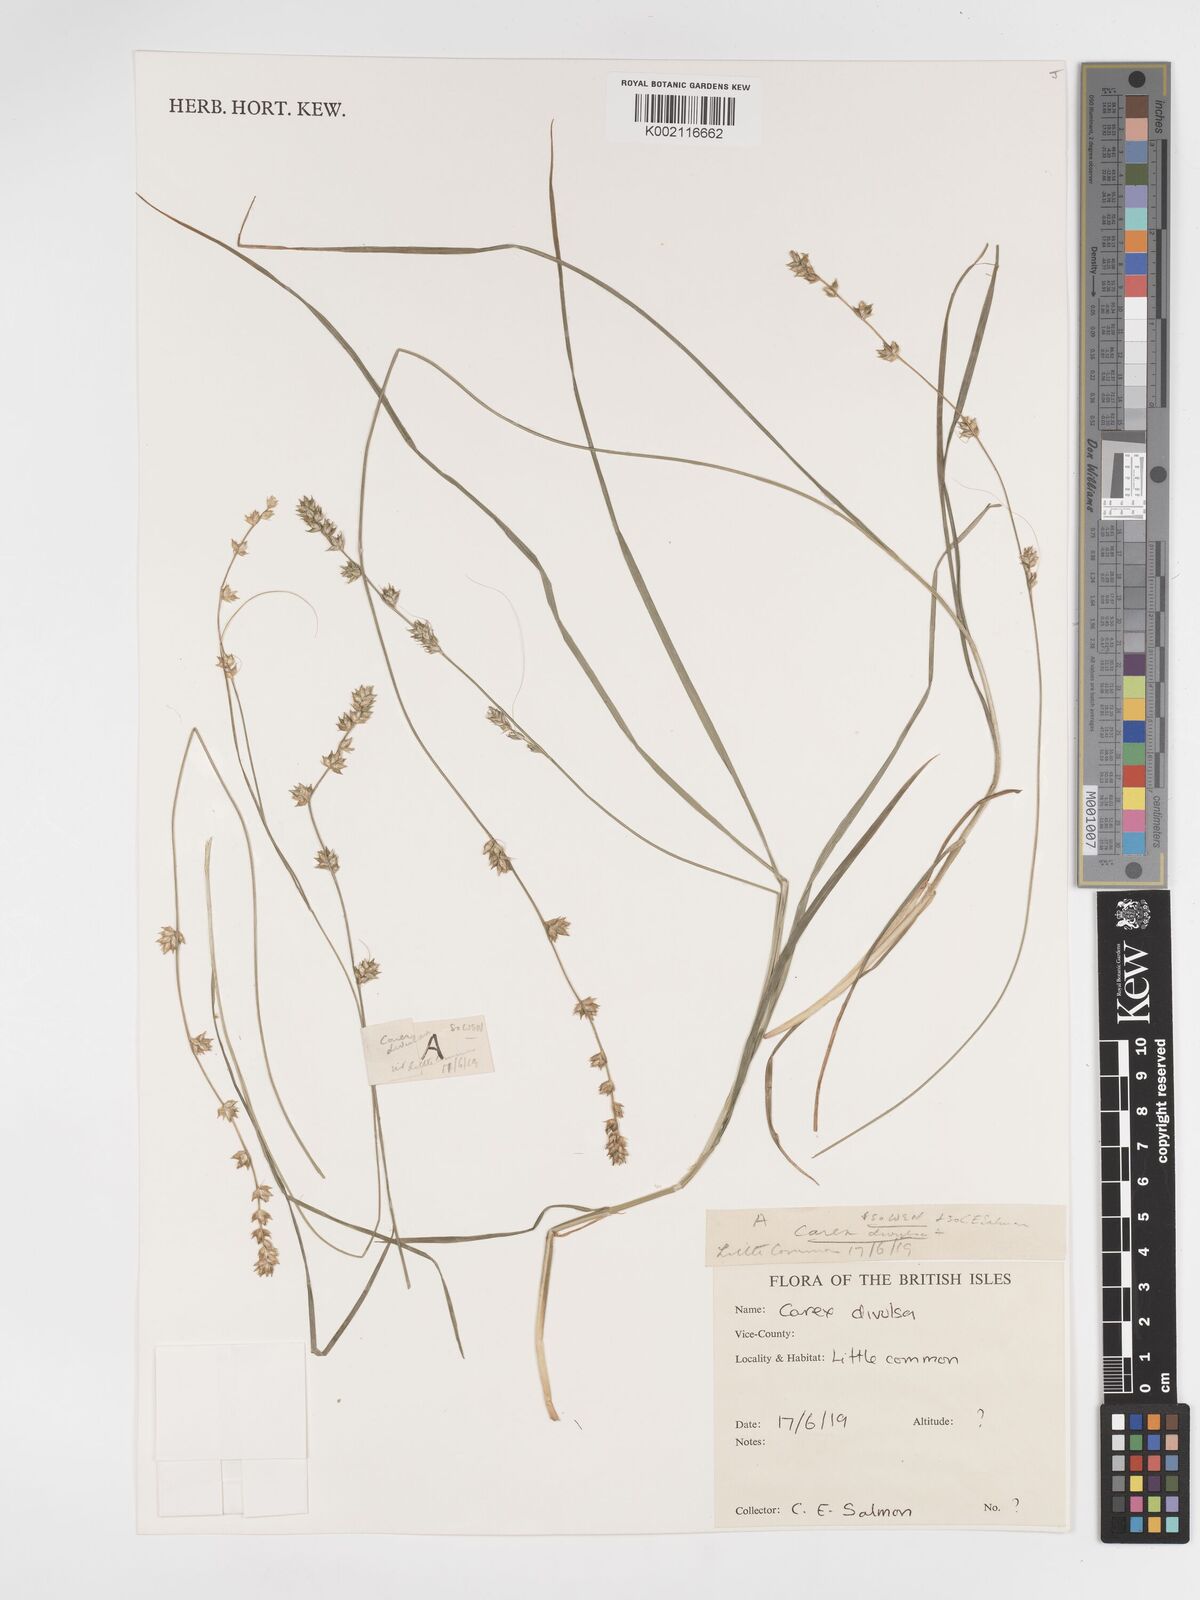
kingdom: Plantae
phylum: Tracheophyta
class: Liliopsida
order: Poales
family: Cyperaceae
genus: Carex
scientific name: Carex divulsa
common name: Grassland sedge
